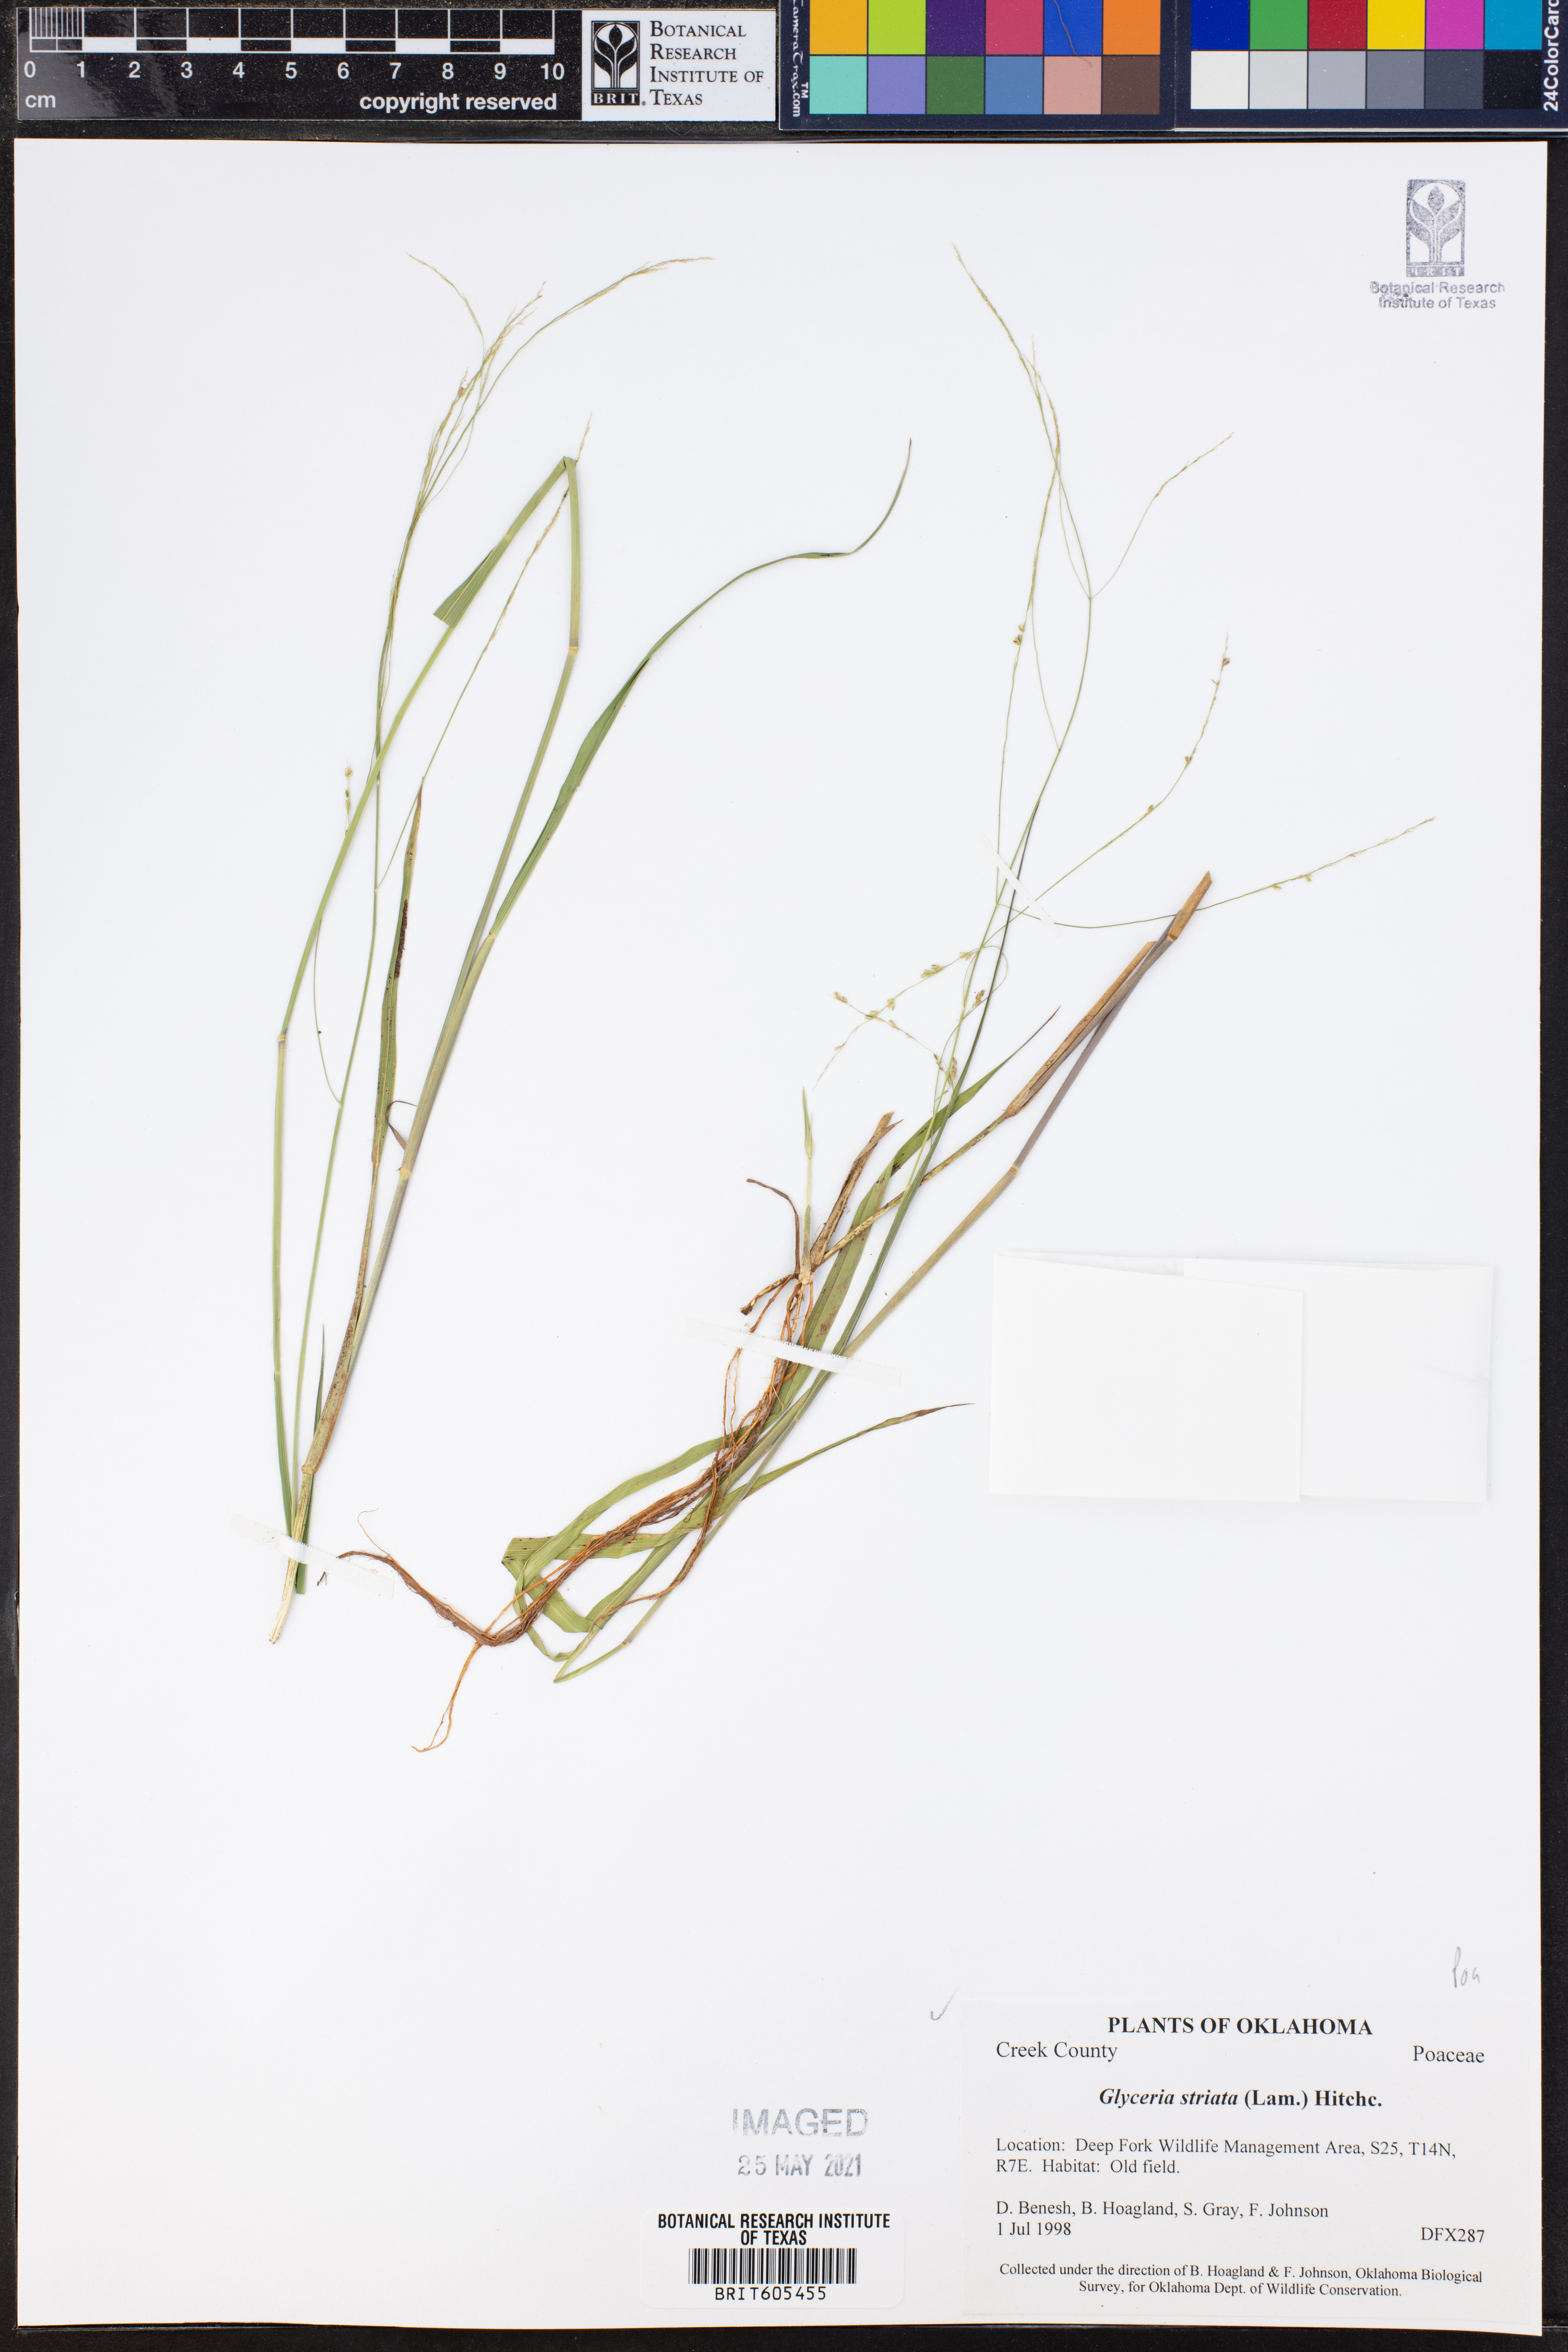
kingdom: Plantae
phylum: Tracheophyta
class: Liliopsida
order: Poales
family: Poaceae
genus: Glyceria
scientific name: Glyceria striata
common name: Fowl manna grass
